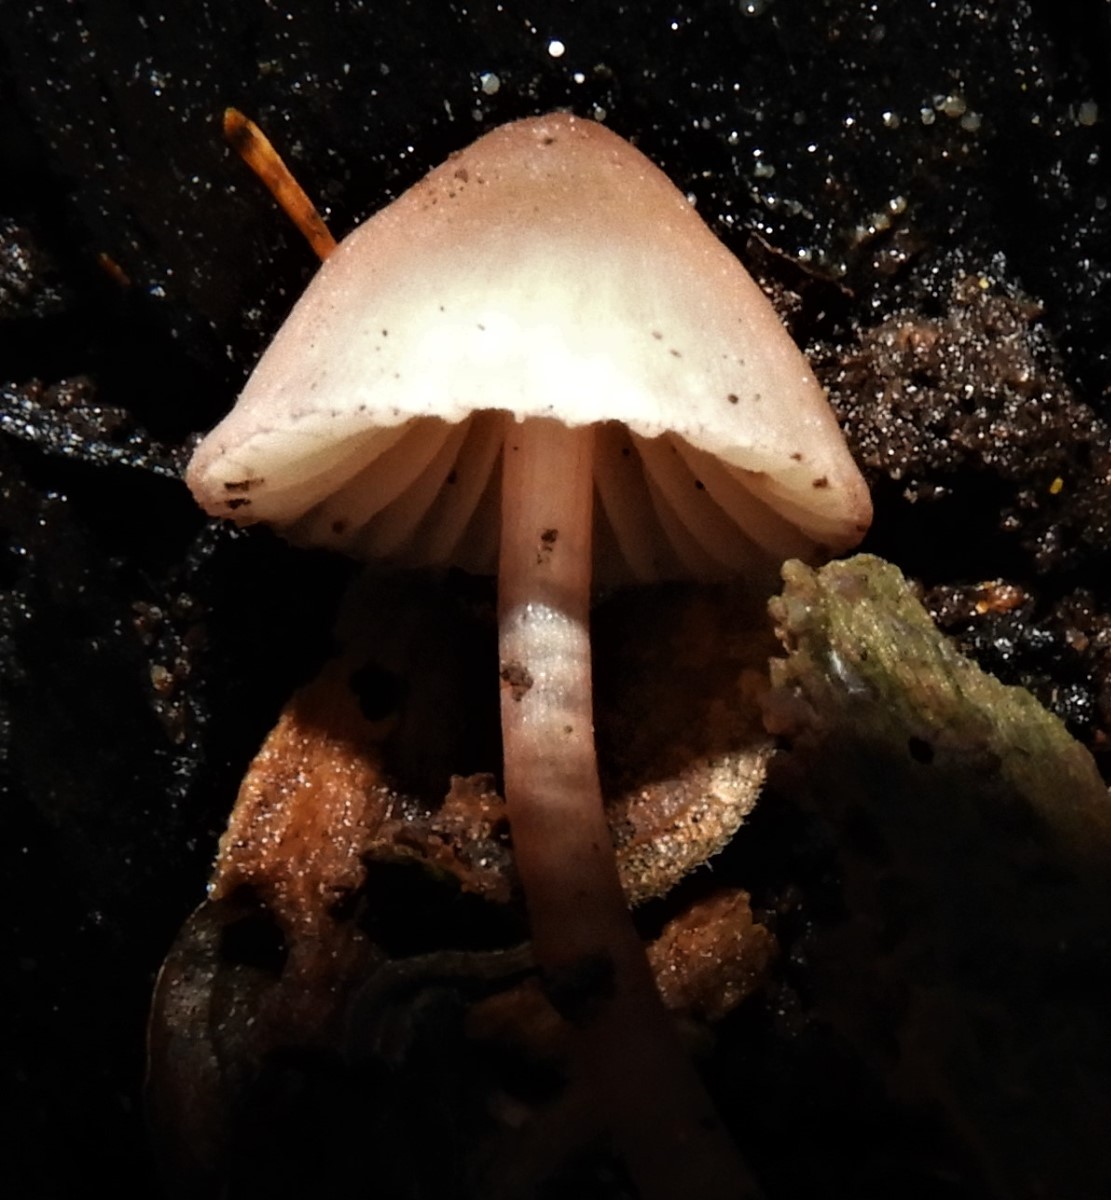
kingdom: Fungi
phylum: Basidiomycota
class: Agaricomycetes
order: Agaricales
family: Mycenaceae
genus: Mycena
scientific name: Mycena
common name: huesvamp
